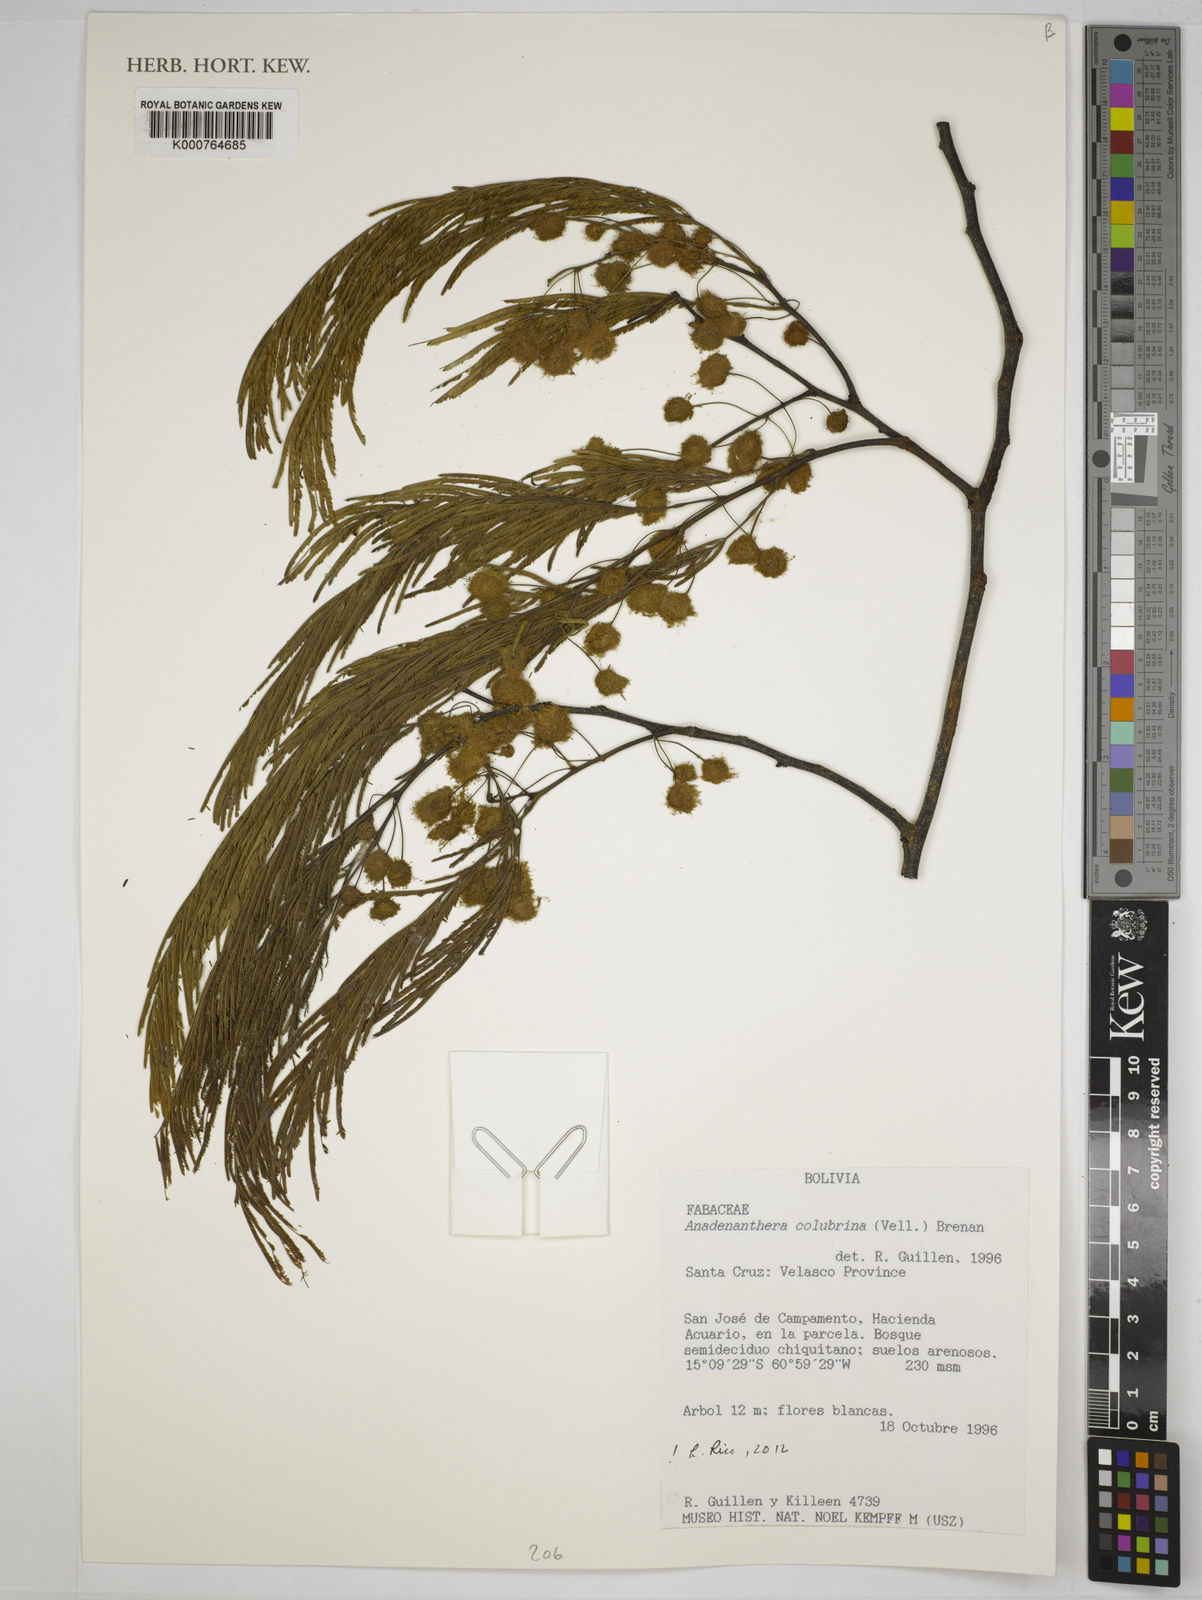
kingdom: Plantae
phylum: Tracheophyta
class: Magnoliopsida
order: Fabales
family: Fabaceae
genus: Anadenanthera
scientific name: Anadenanthera colubrina
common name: Curupay
